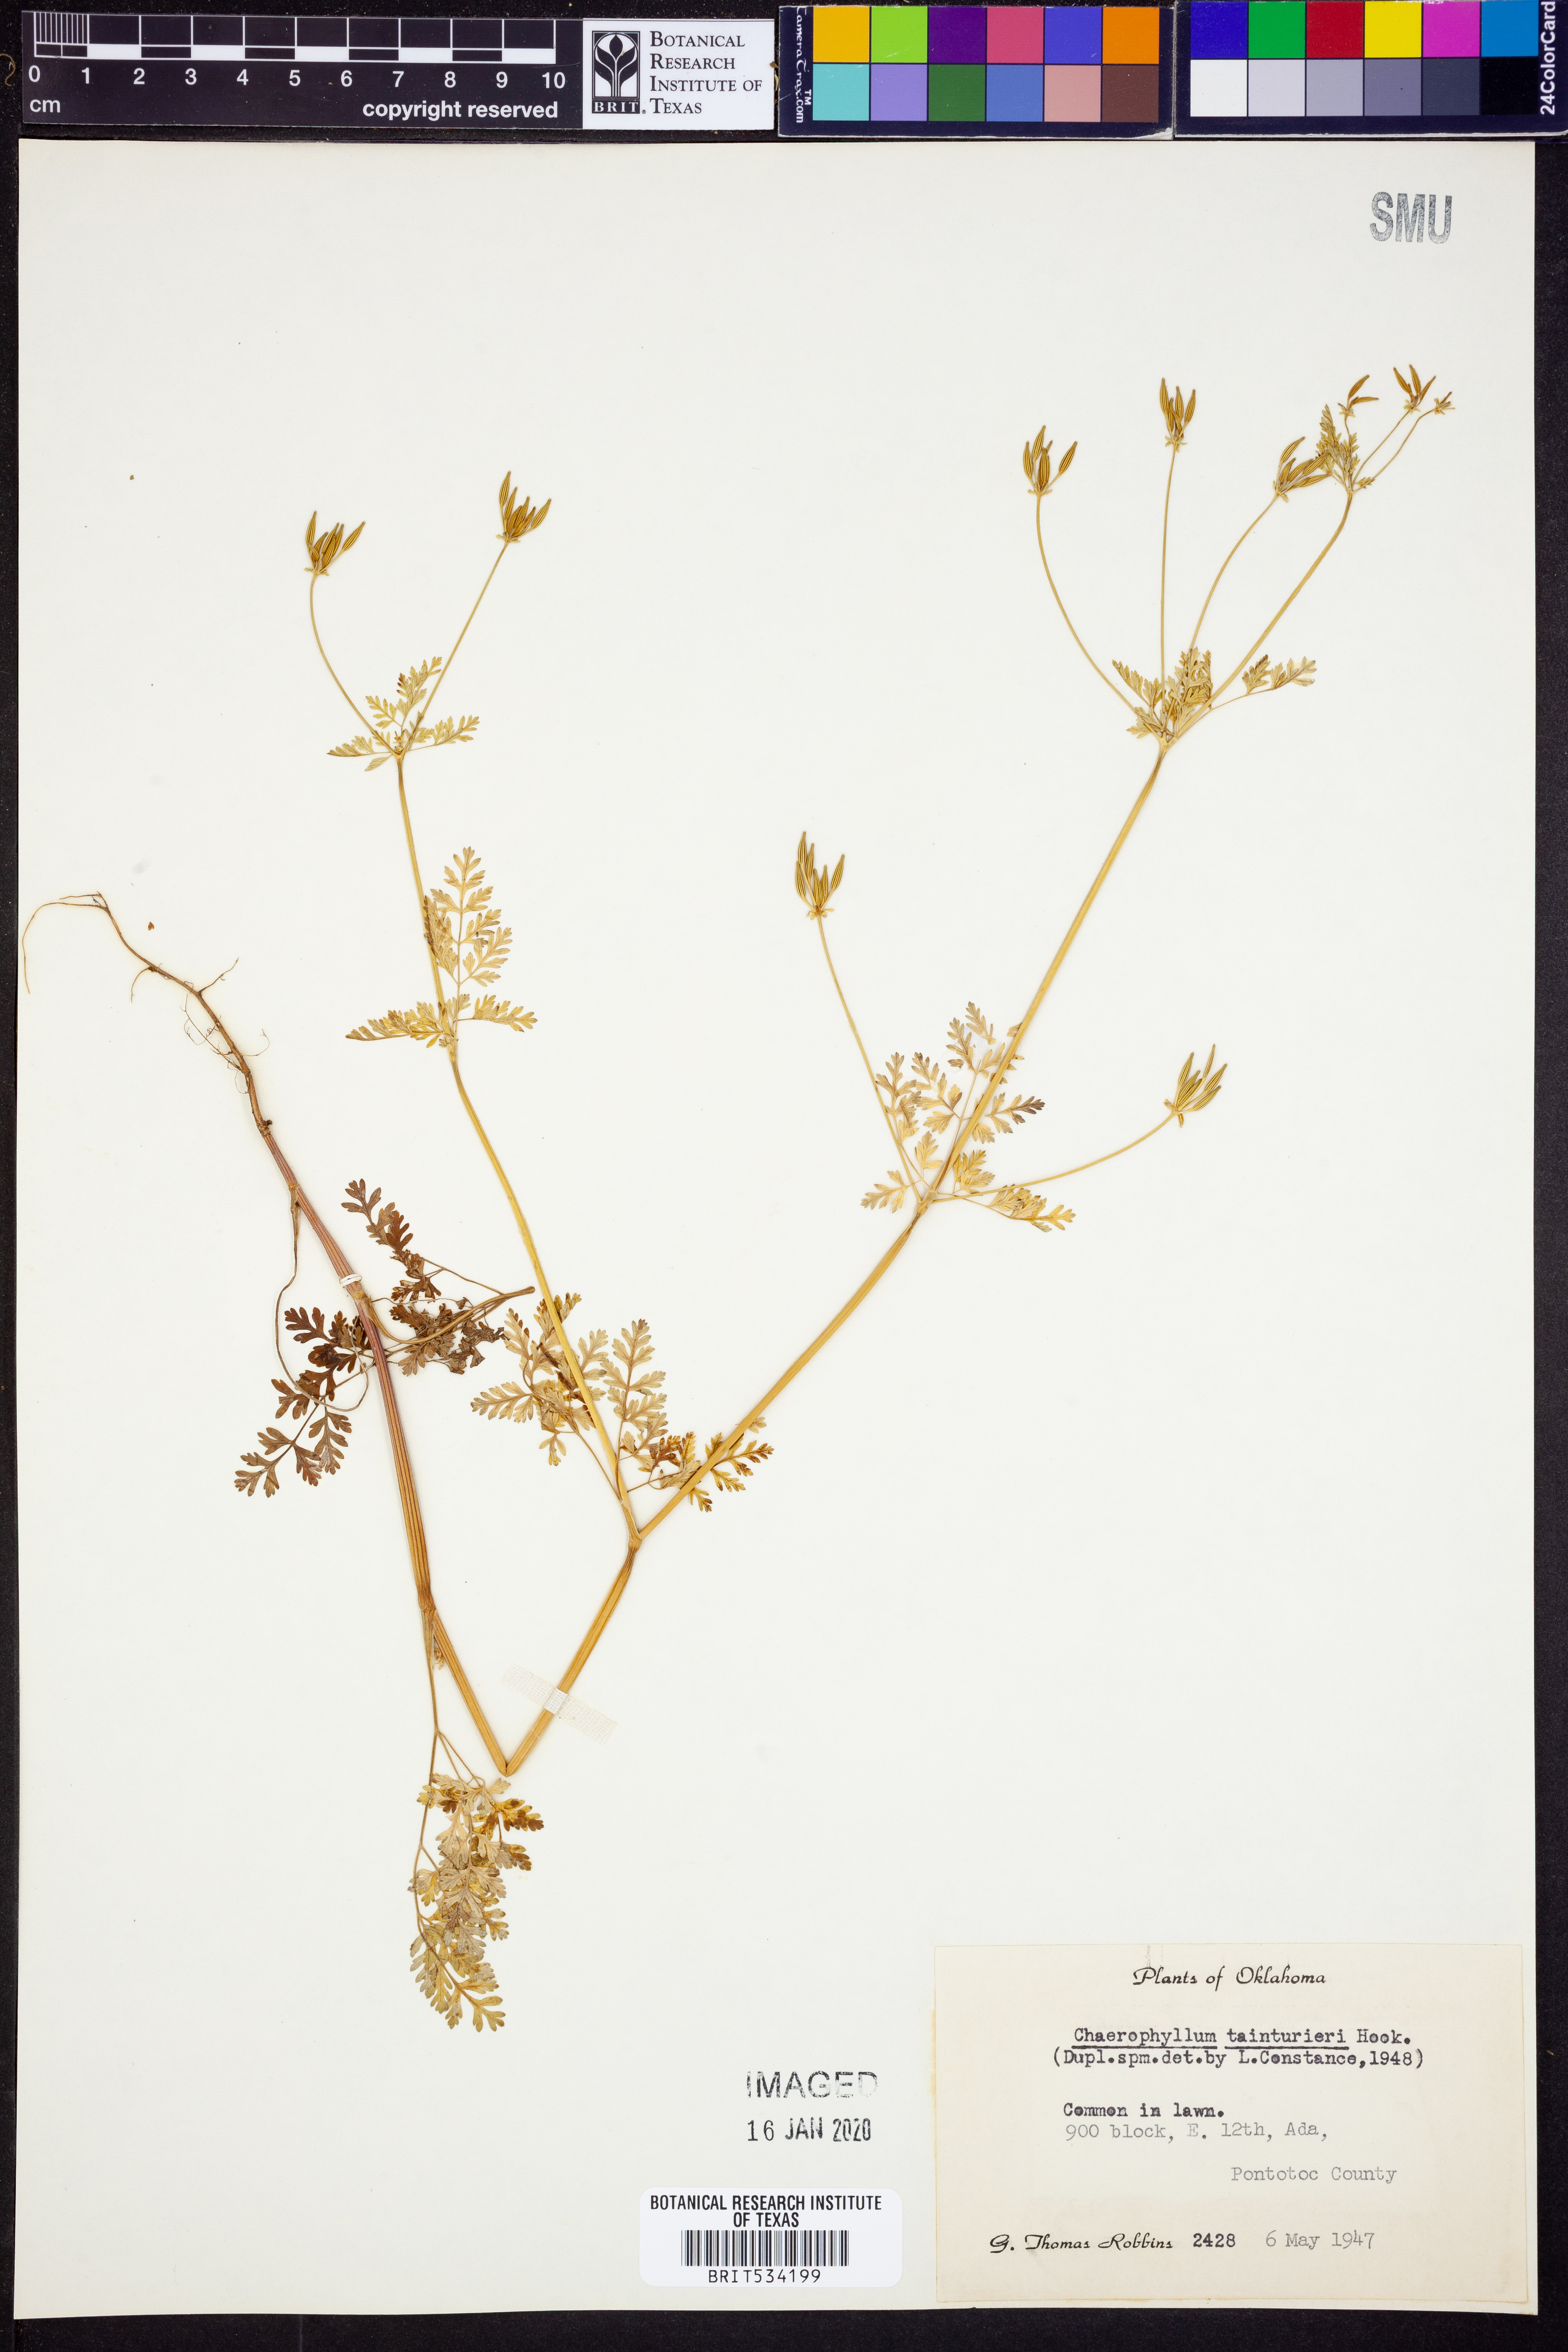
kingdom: Plantae
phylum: Tracheophyta
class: Magnoliopsida
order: Apiales
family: Apiaceae
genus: Chaerophyllum
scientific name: Chaerophyllum tainturieri
